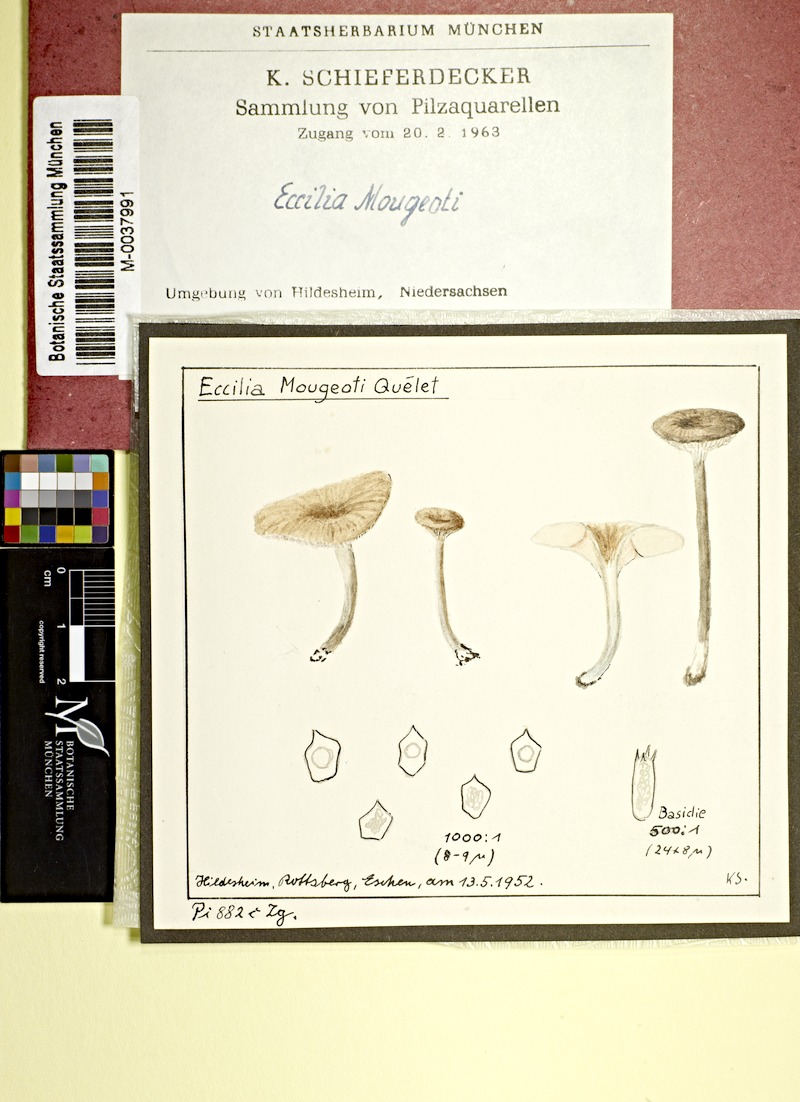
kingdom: Fungi
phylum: Basidiomycota
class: Agaricomycetes
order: Agaricales
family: Entolomataceae
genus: Entoloma
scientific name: Entoloma mougeotii
